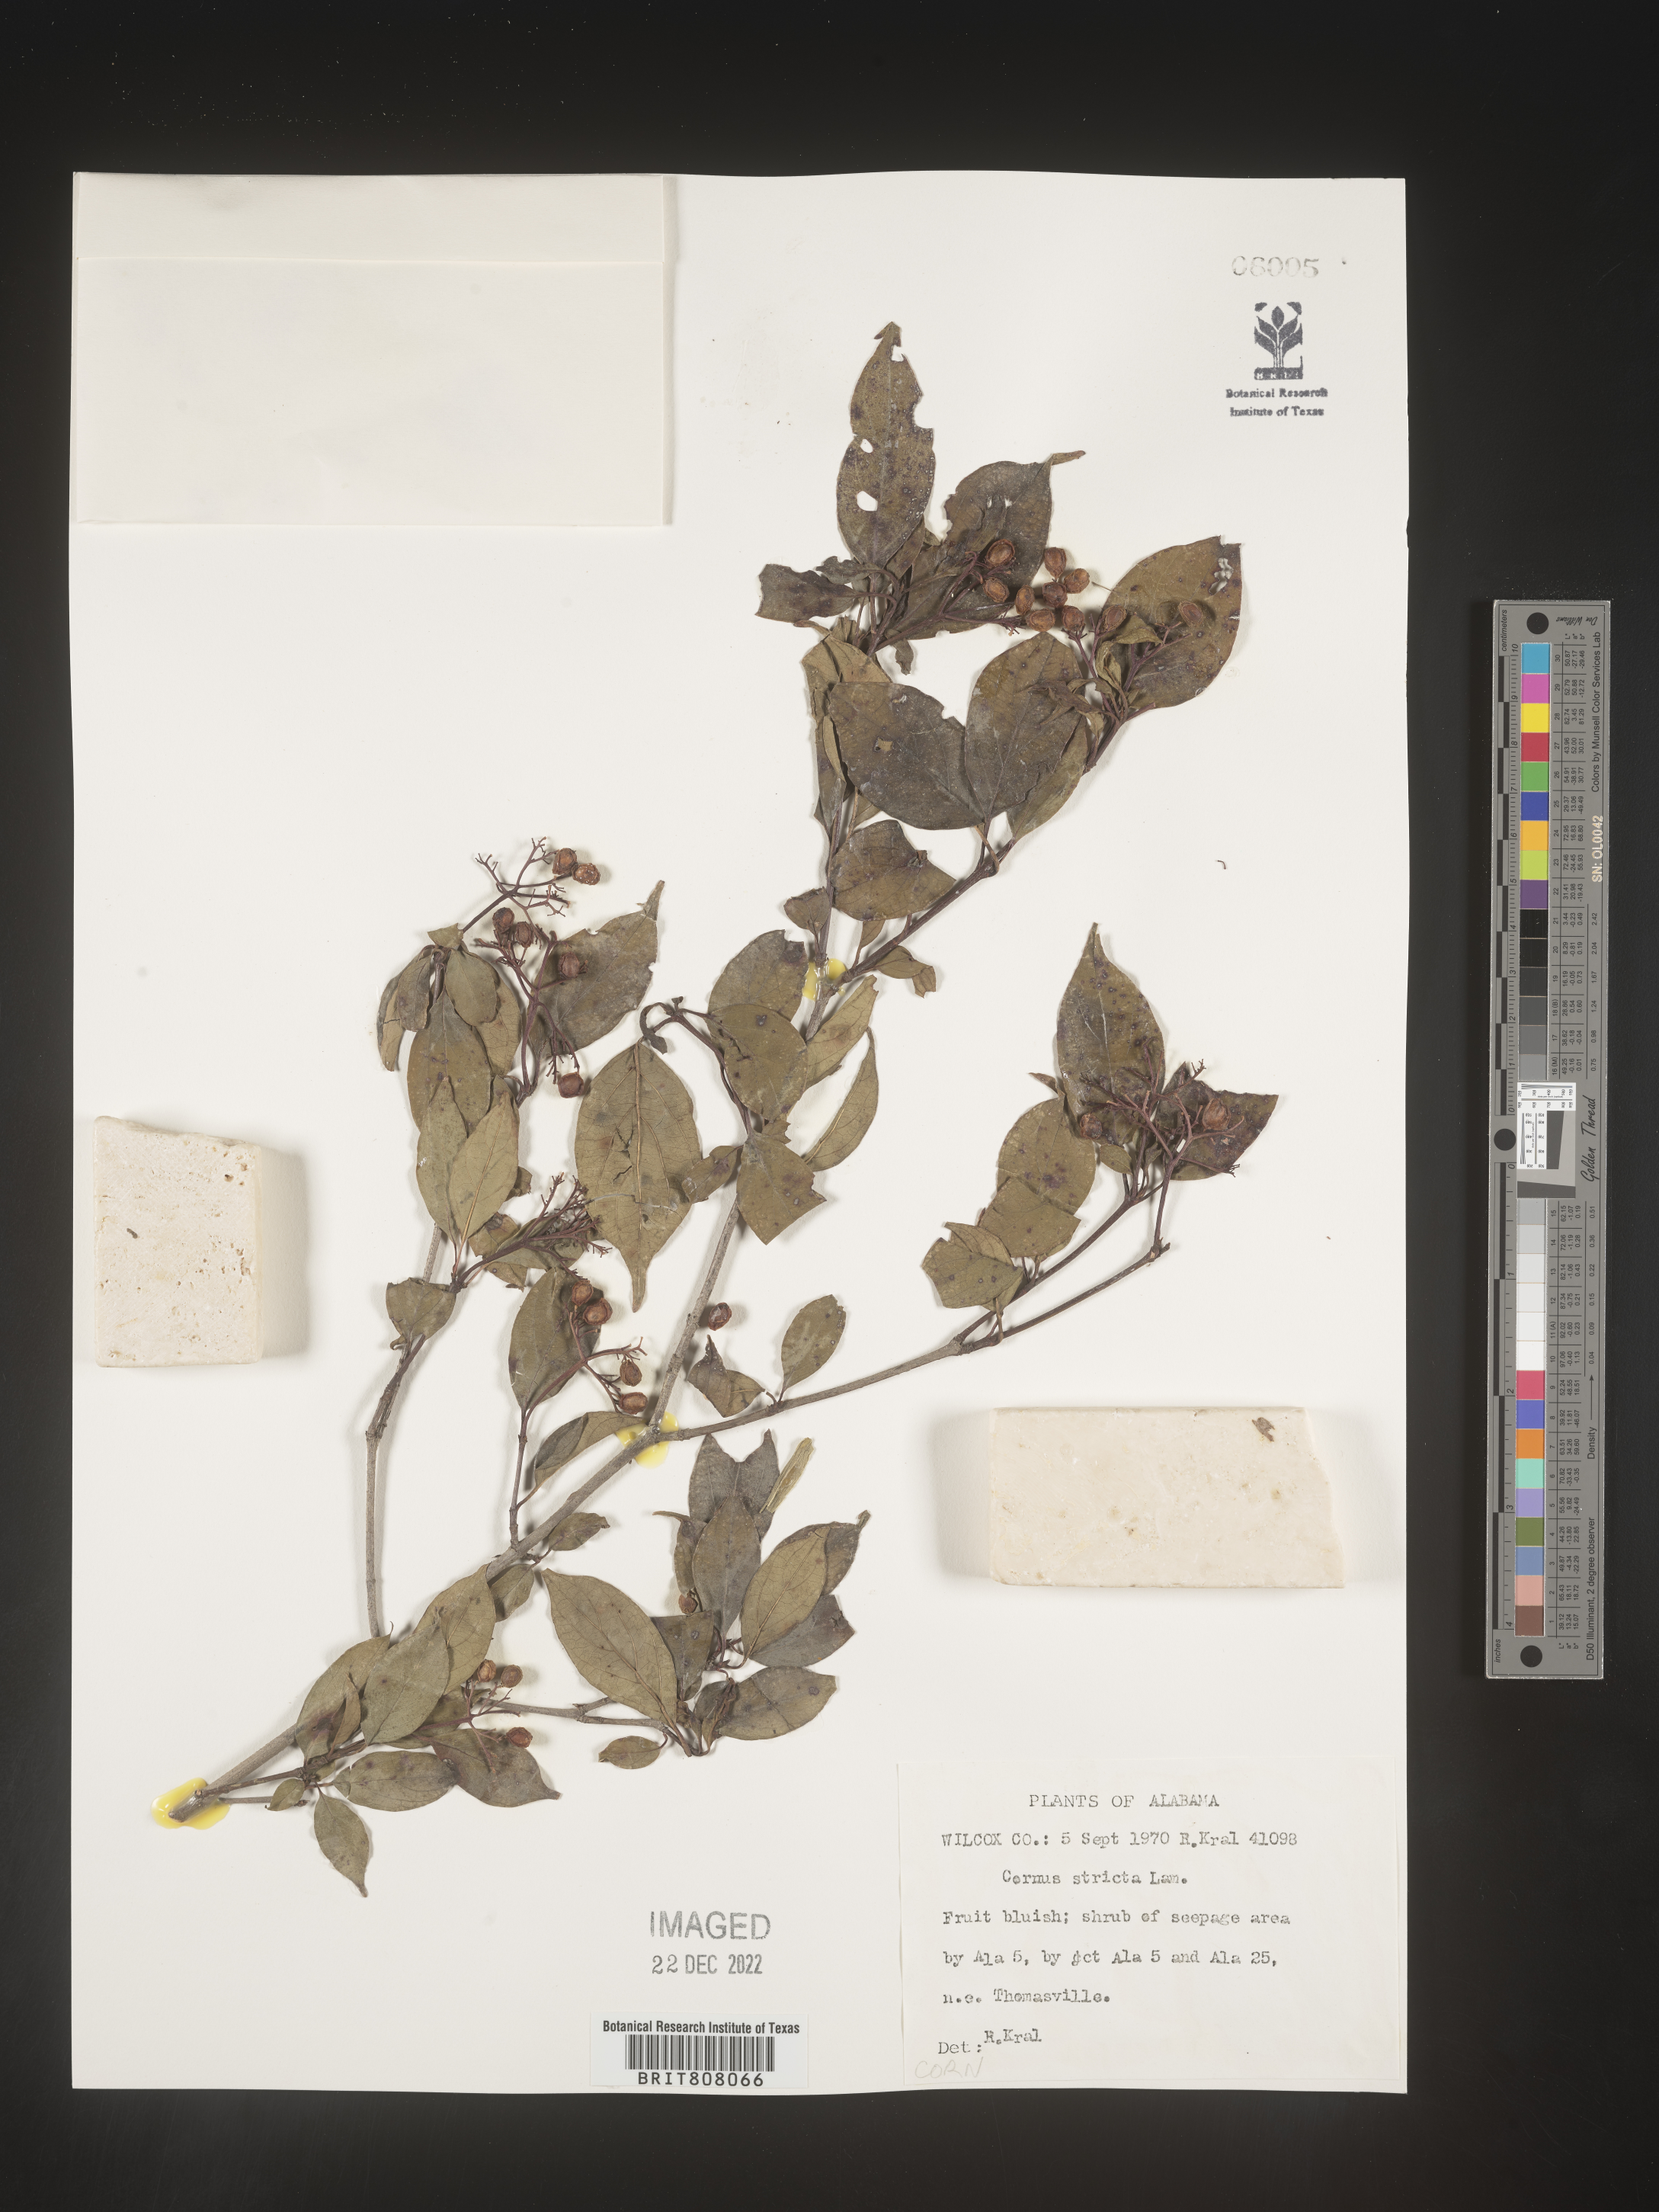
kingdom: Plantae
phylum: Tracheophyta
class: Magnoliopsida
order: Cornales
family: Cornaceae
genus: Cornus
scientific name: Cornus foemina
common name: Swamp dogwood
